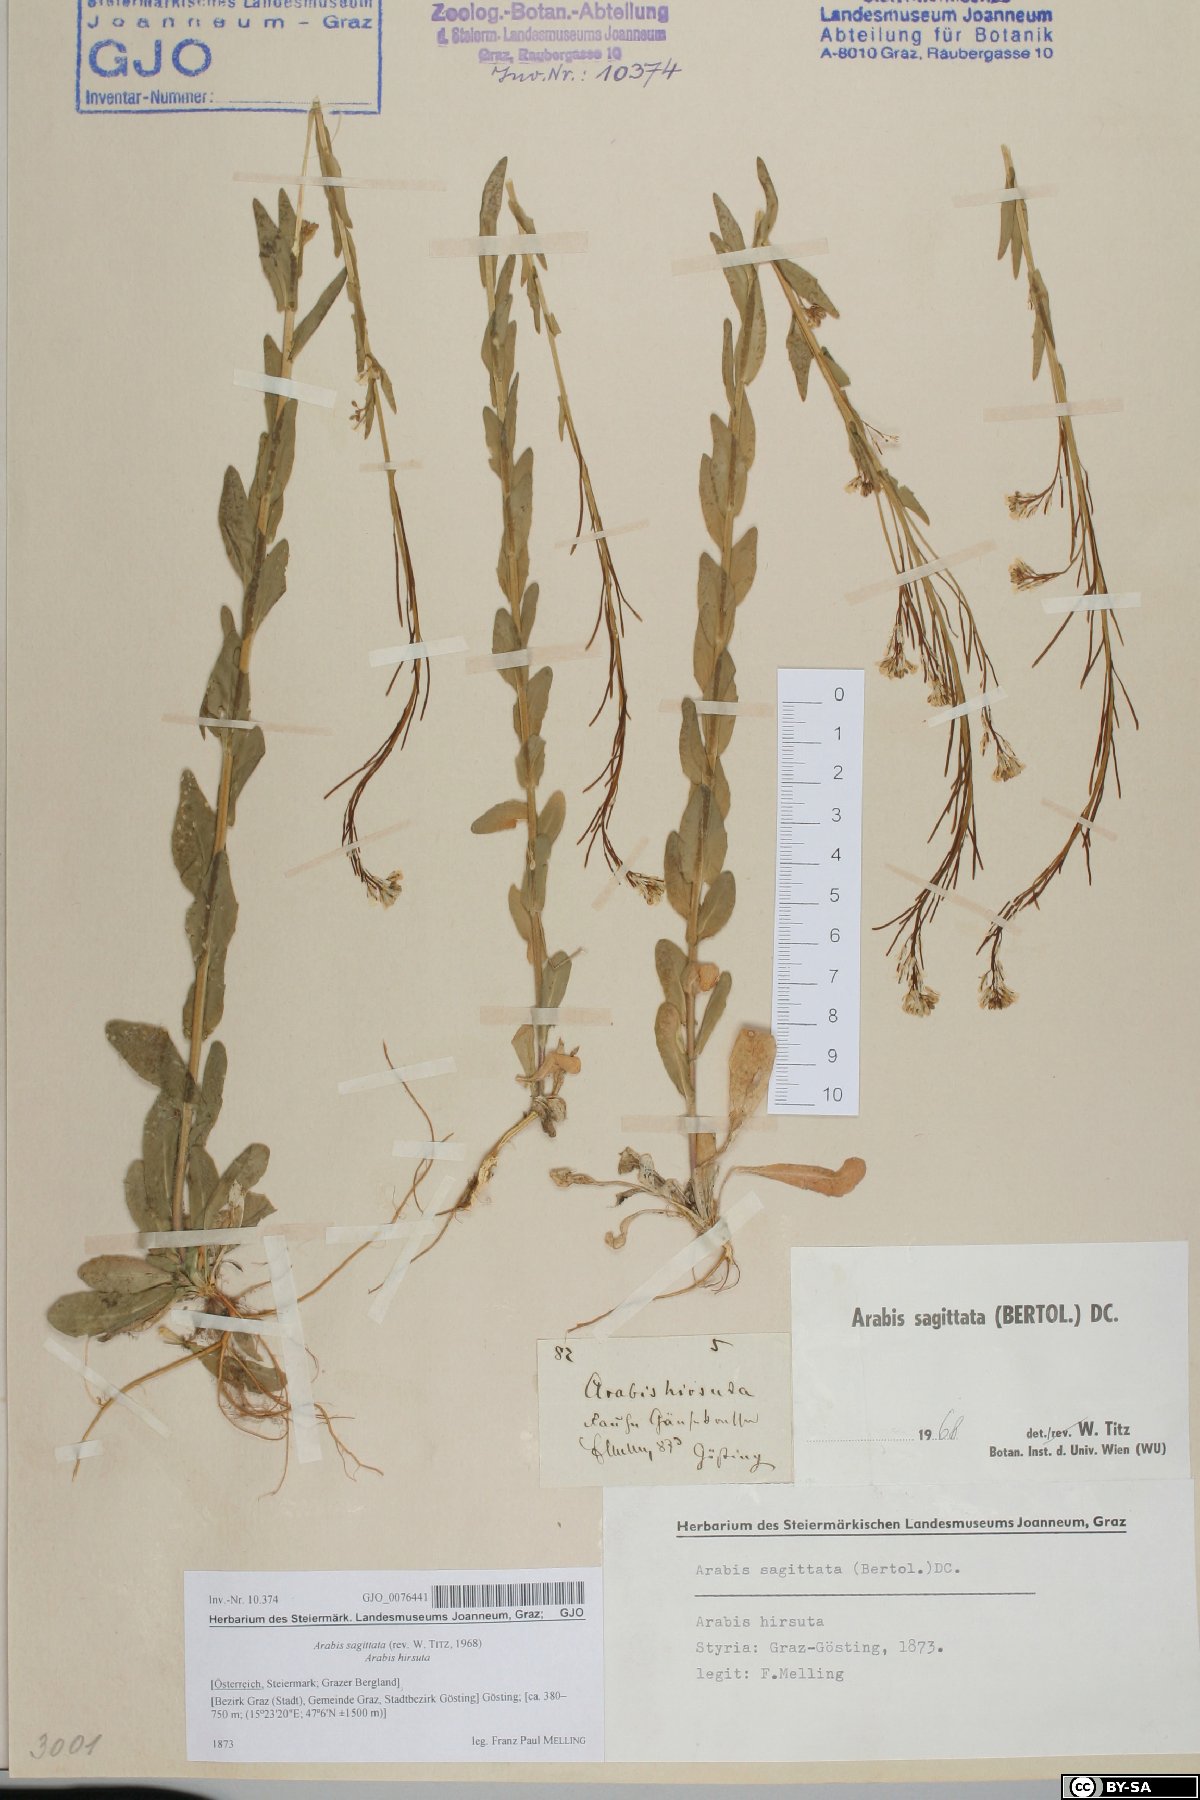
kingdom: Plantae
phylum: Tracheophyta
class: Magnoliopsida
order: Brassicales
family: Brassicaceae
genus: Arabis
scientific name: Arabis sagittata
